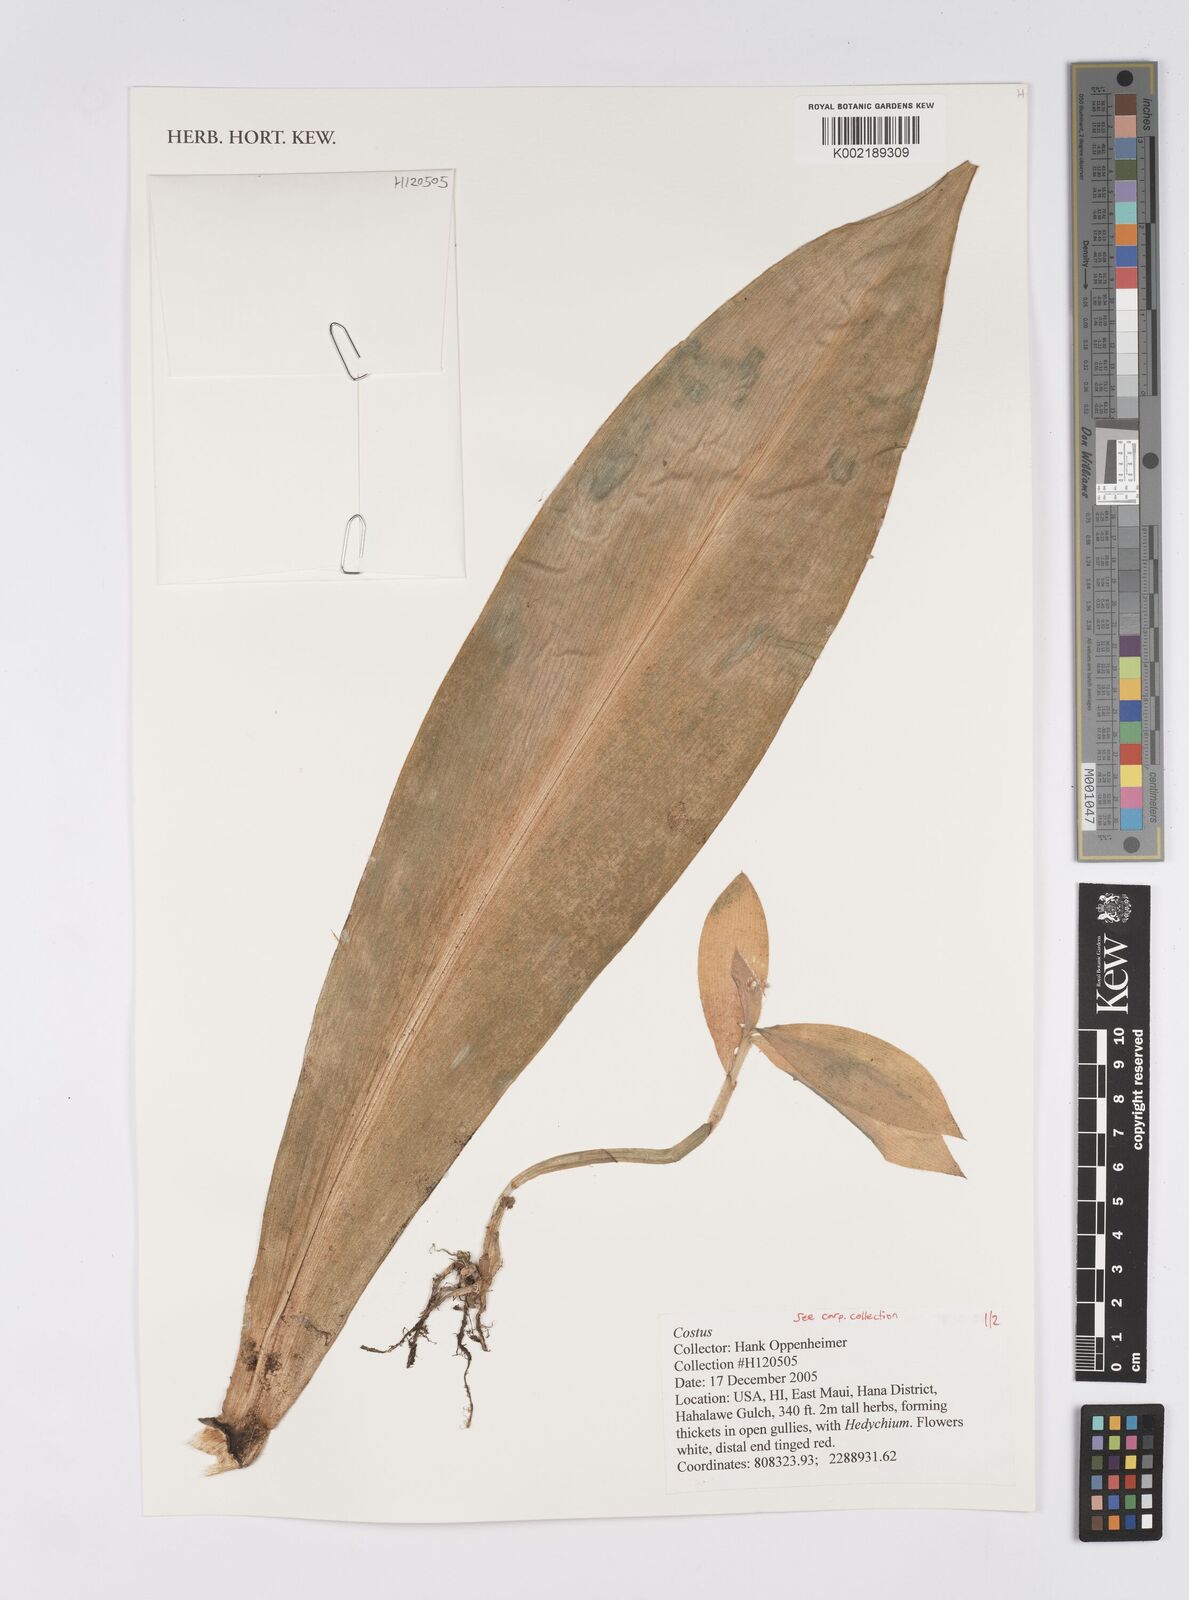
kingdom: Plantae
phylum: Tracheophyta
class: Liliopsida
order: Zingiberales
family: Costaceae
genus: Costus
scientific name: Costus
